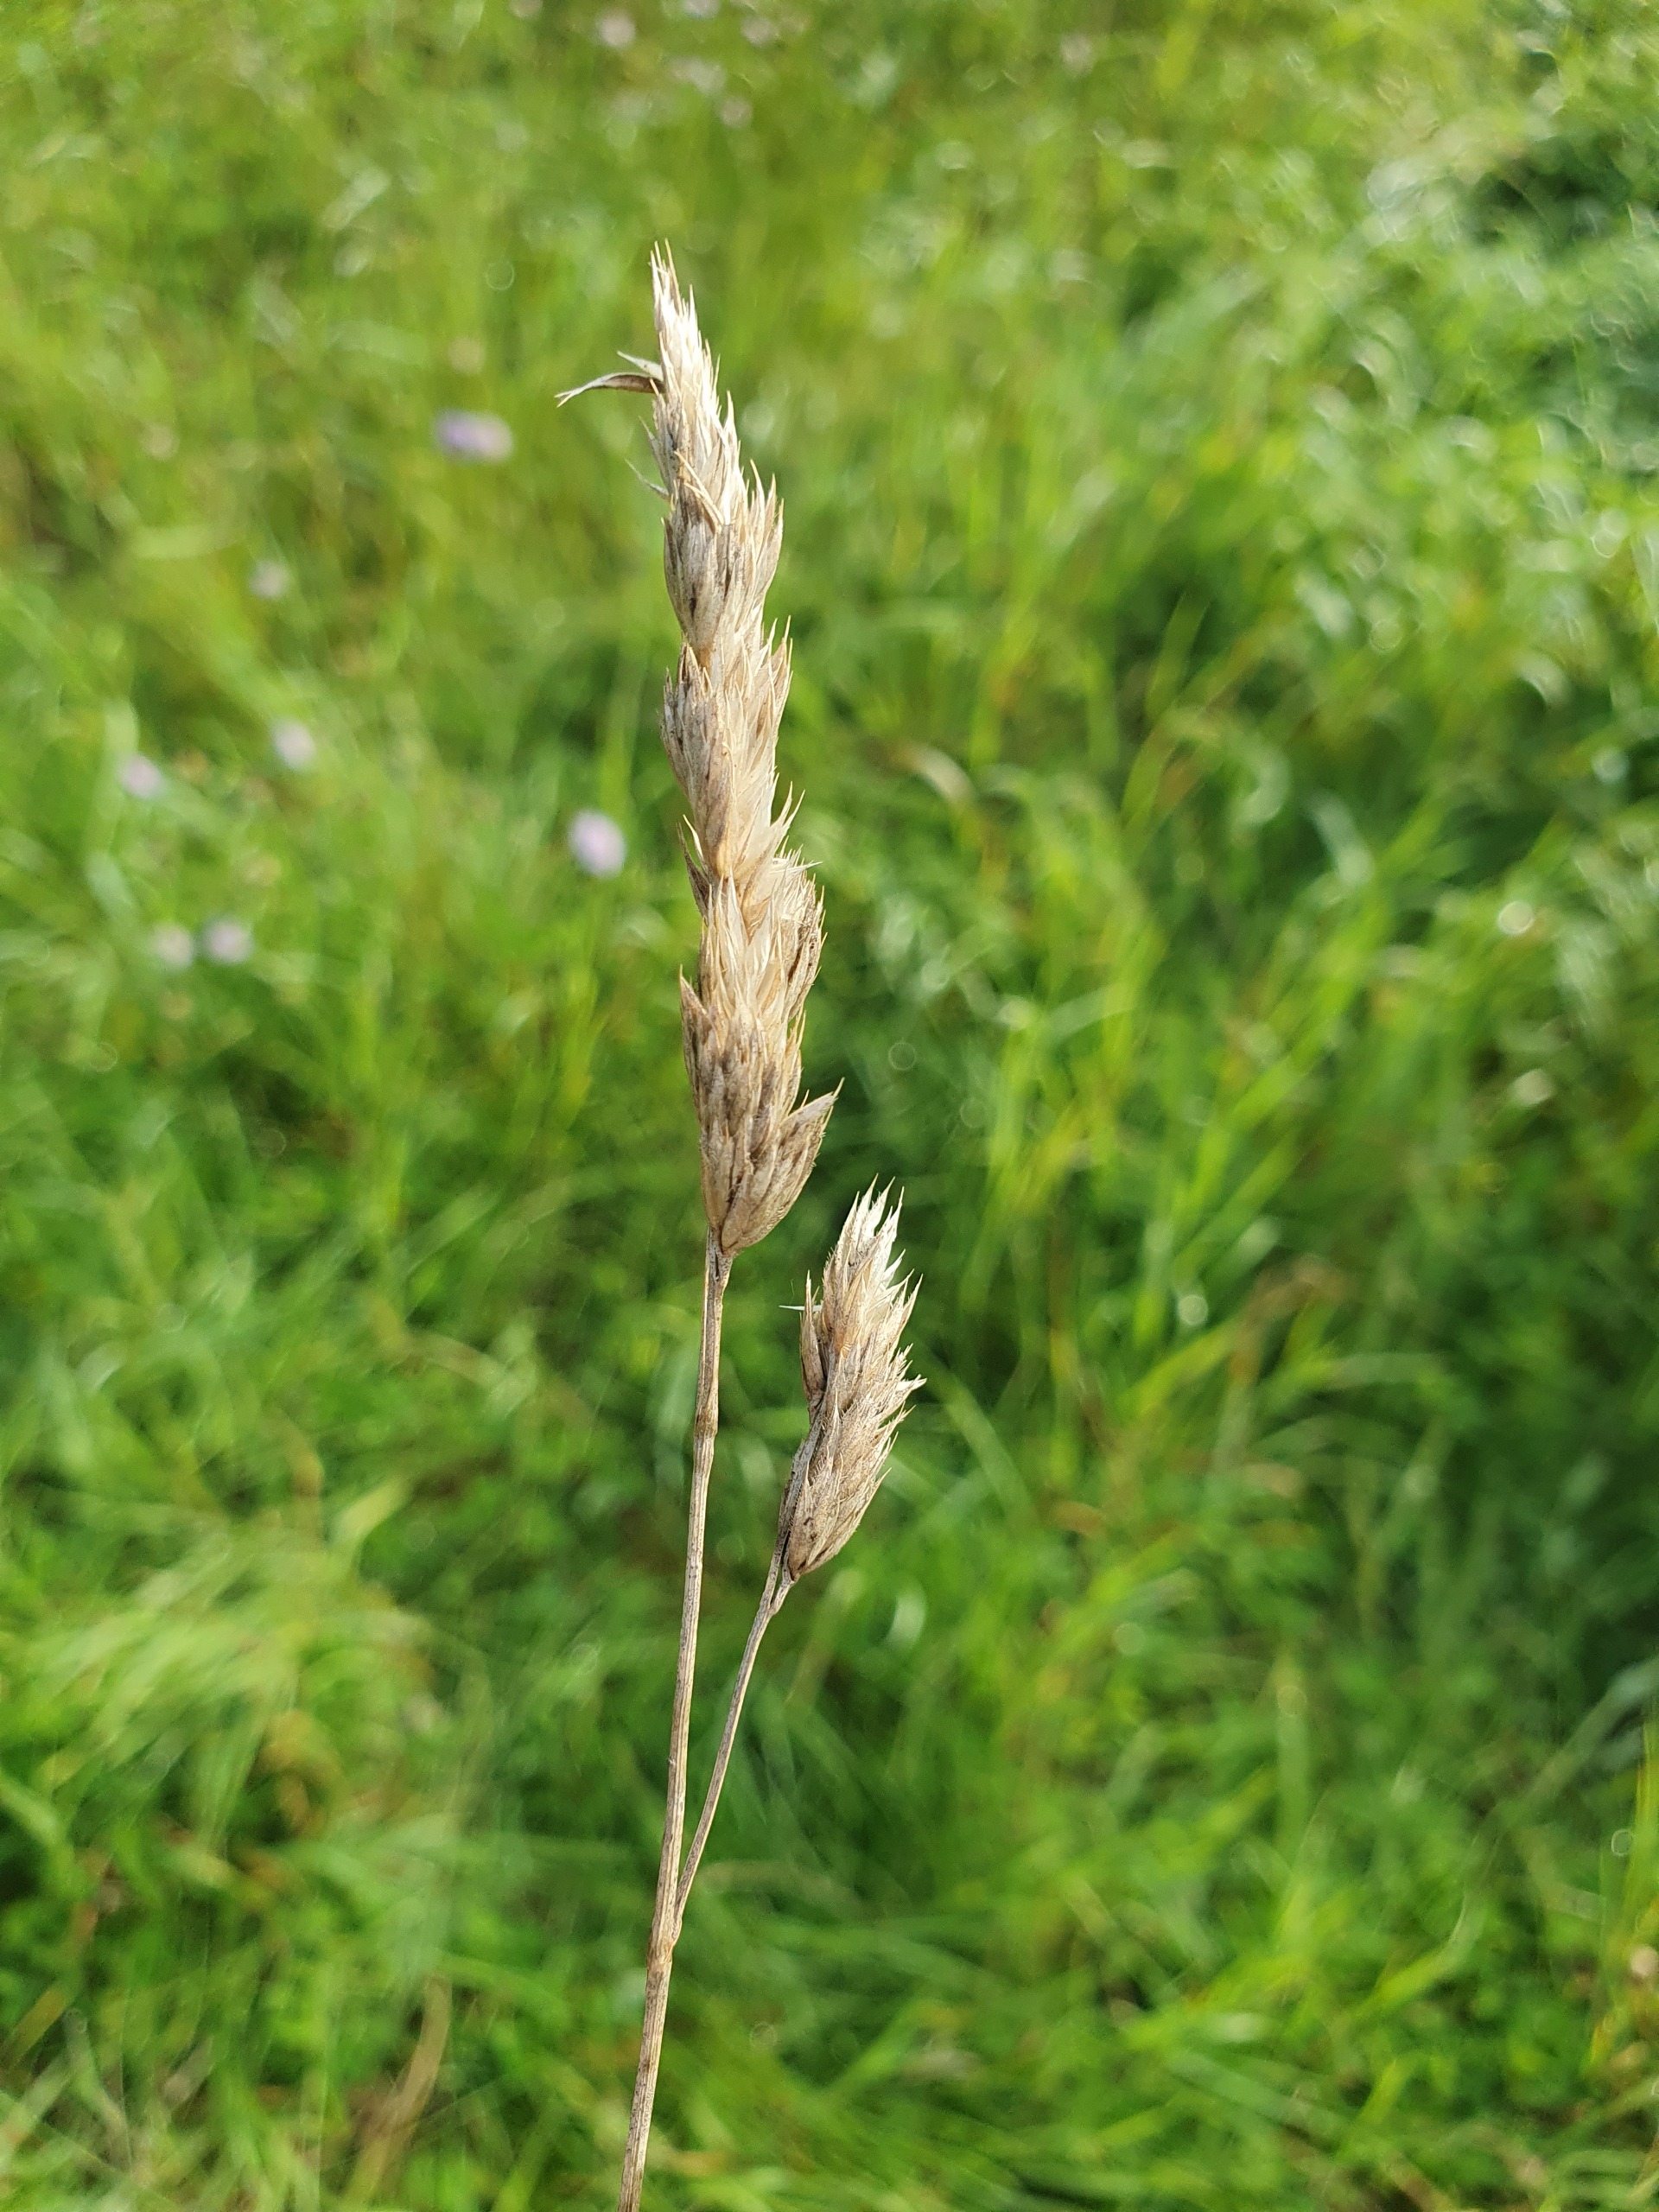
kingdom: Plantae
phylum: Tracheophyta
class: Liliopsida
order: Poales
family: Poaceae
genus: Dactylis
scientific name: Dactylis glomerata
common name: Almindelig hundegræs
